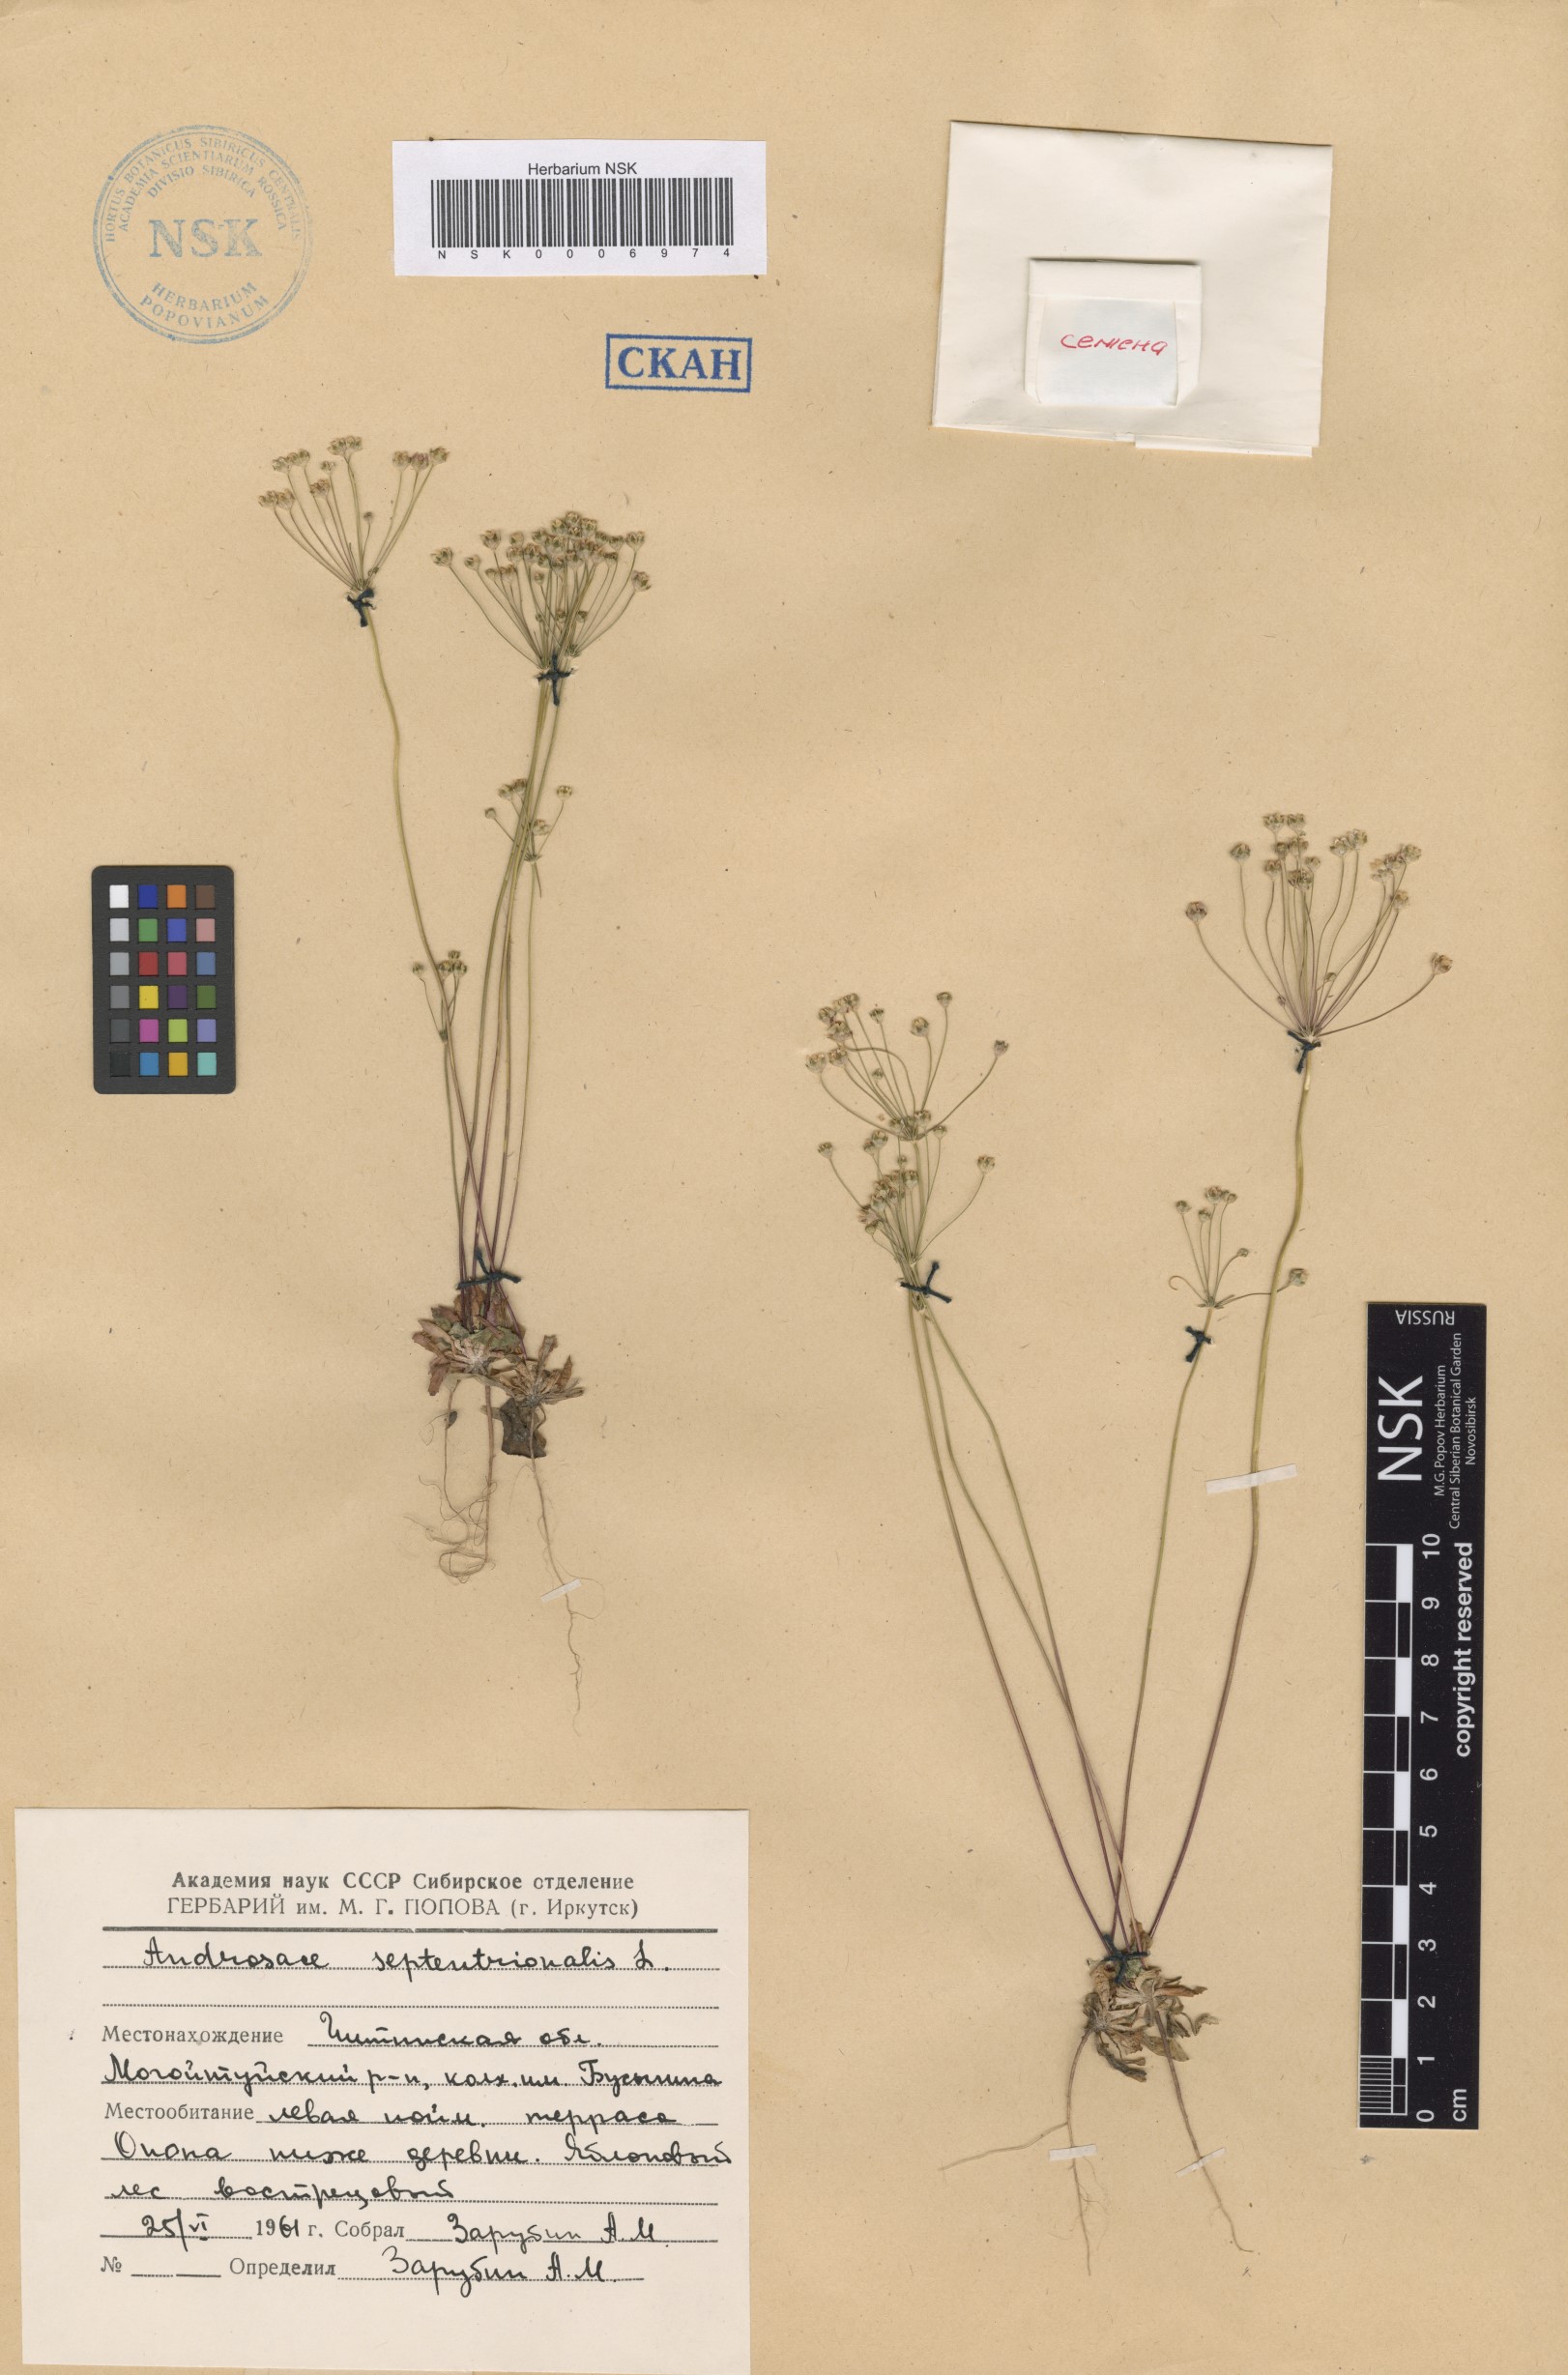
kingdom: Plantae
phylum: Tracheophyta
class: Magnoliopsida
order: Ericales
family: Primulaceae
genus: Androsace
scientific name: Androsace septentrionalis
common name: Hairy northern fairy-candelabra
